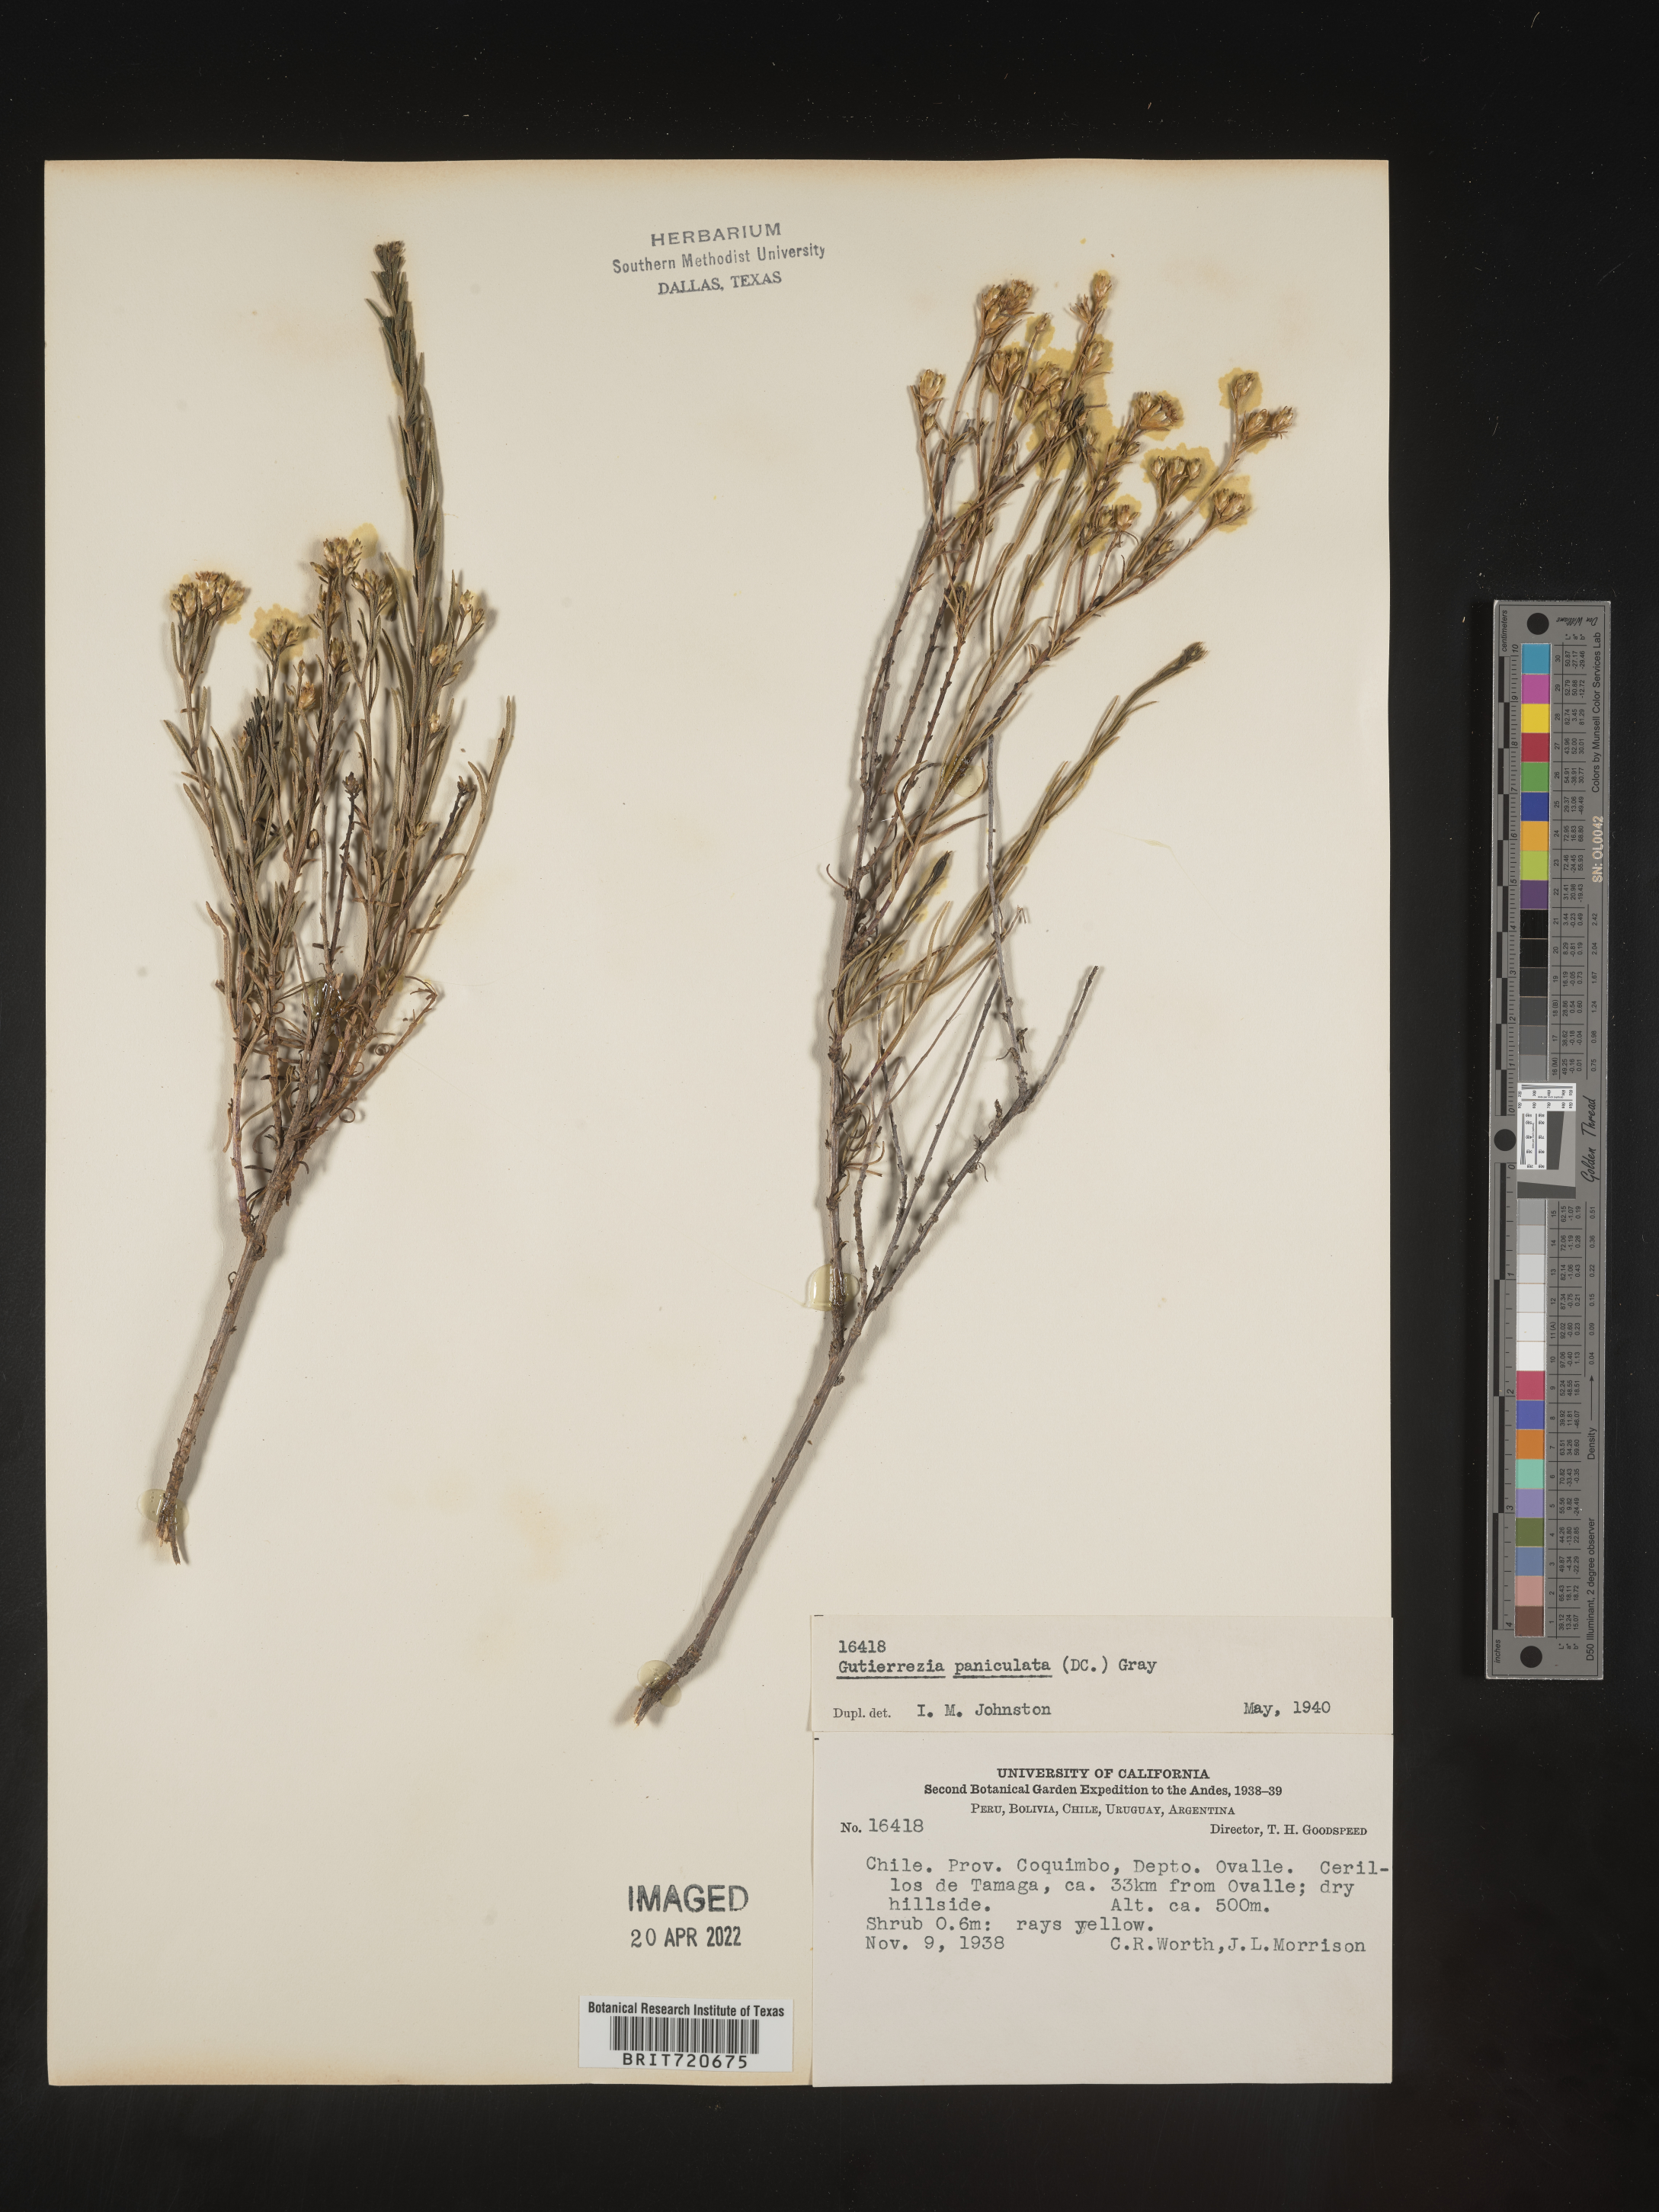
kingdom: Plantae
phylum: Tracheophyta
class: Magnoliopsida
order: Asterales
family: Asteraceae
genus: Gutierrezia
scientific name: Gutierrezia
